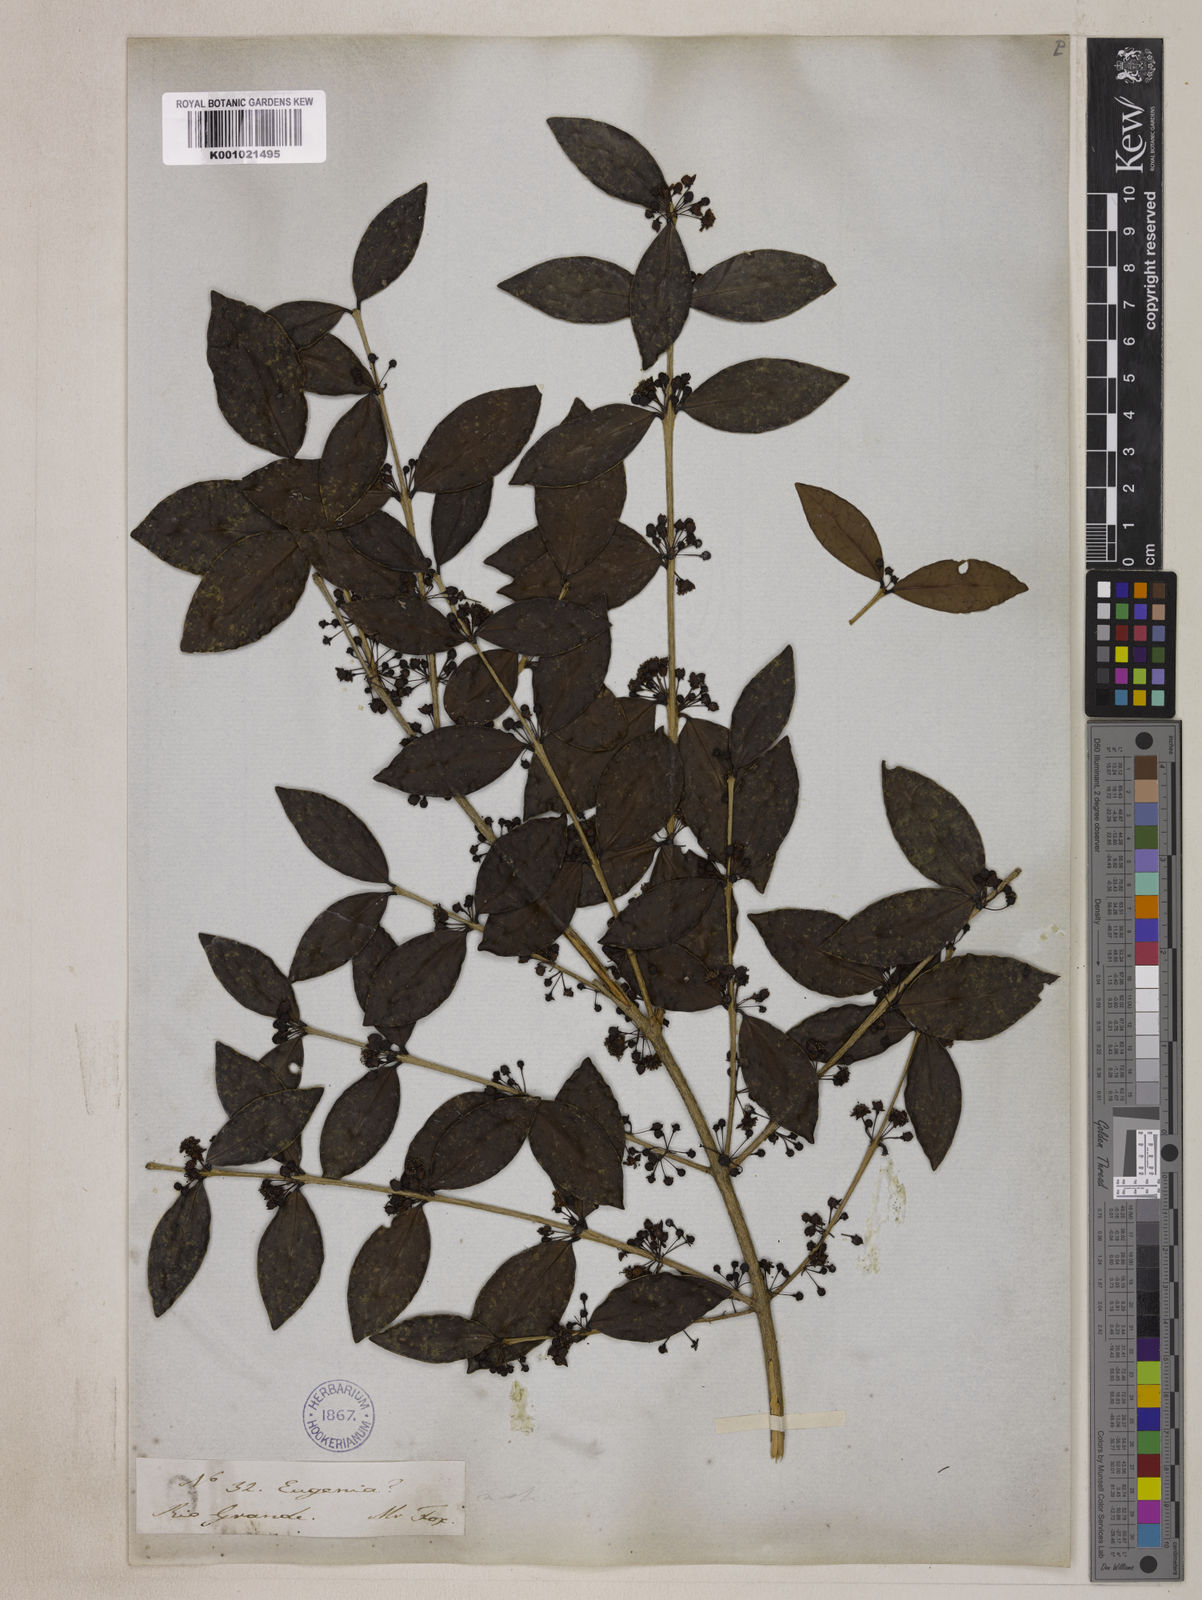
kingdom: Plantae
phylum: Tracheophyta
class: Magnoliopsida
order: Myrtales
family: Myrtaceae
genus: Eugenia
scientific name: Eugenia hiemalis
